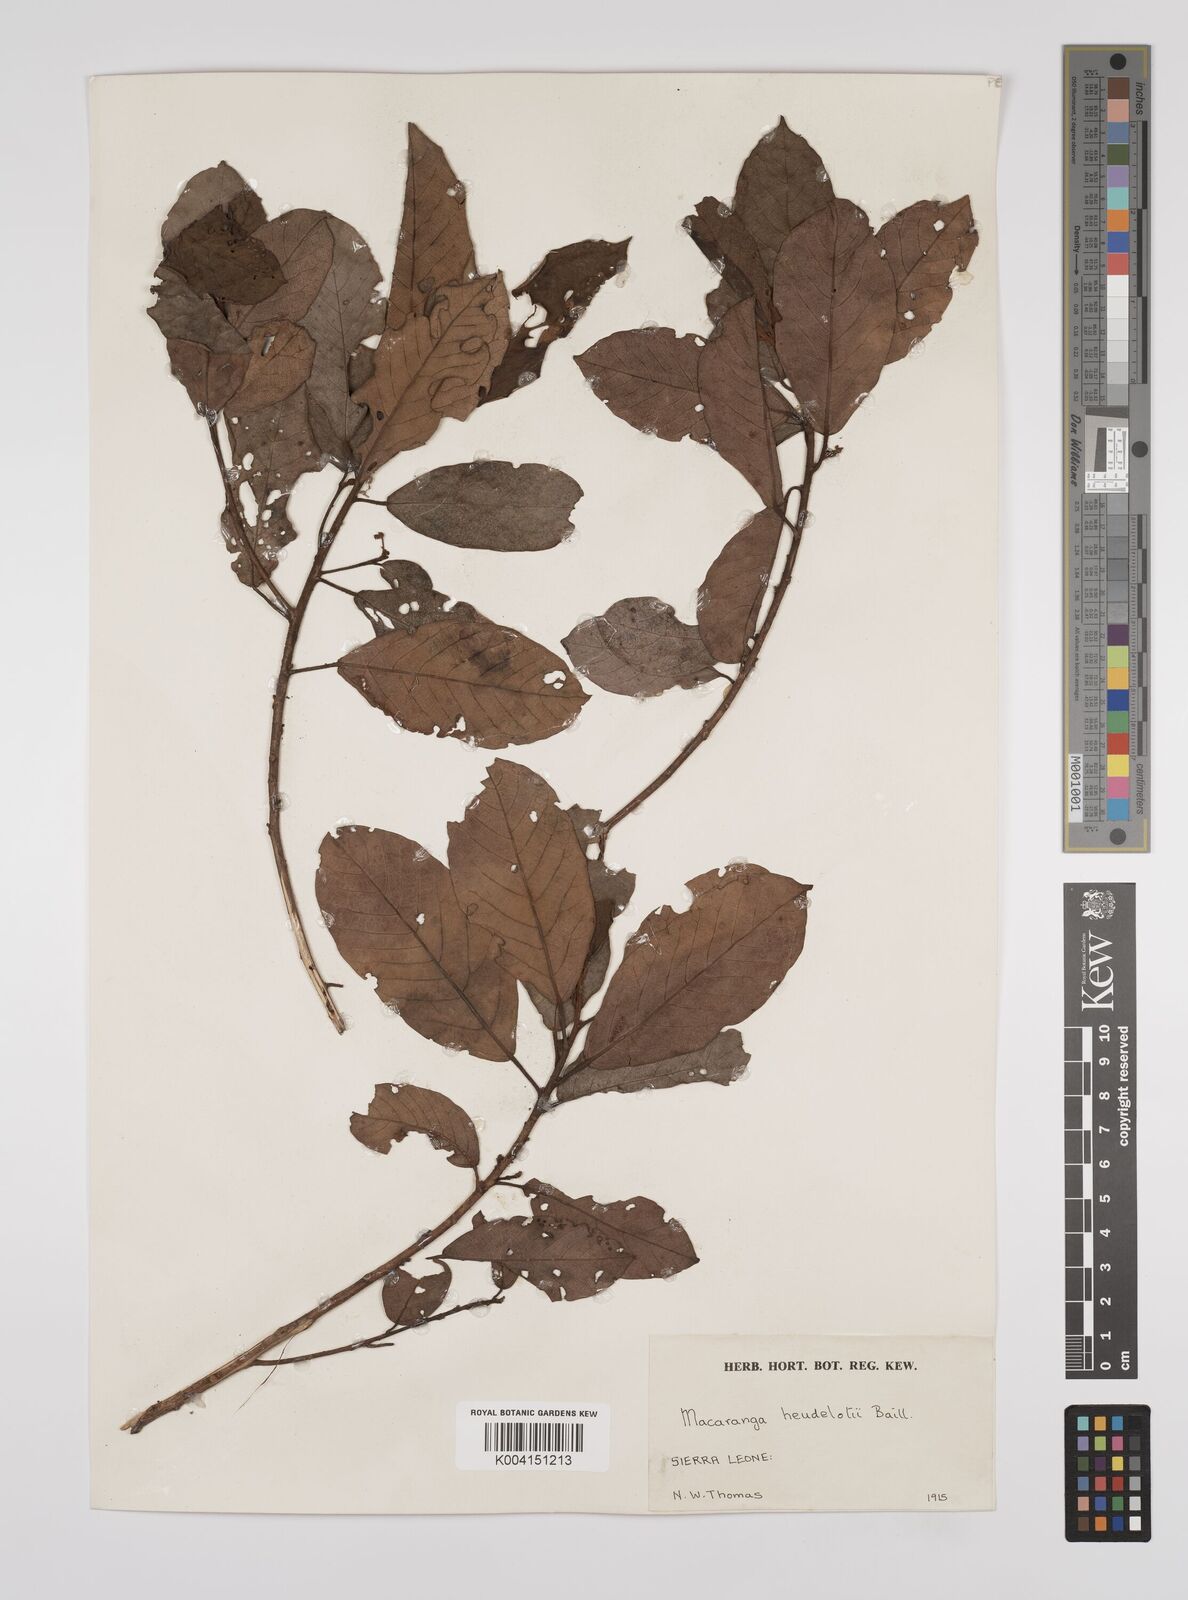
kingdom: Plantae
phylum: Tracheophyta
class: Magnoliopsida
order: Malpighiales
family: Euphorbiaceae
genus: Macaranga
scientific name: Macaranga heudelotii
